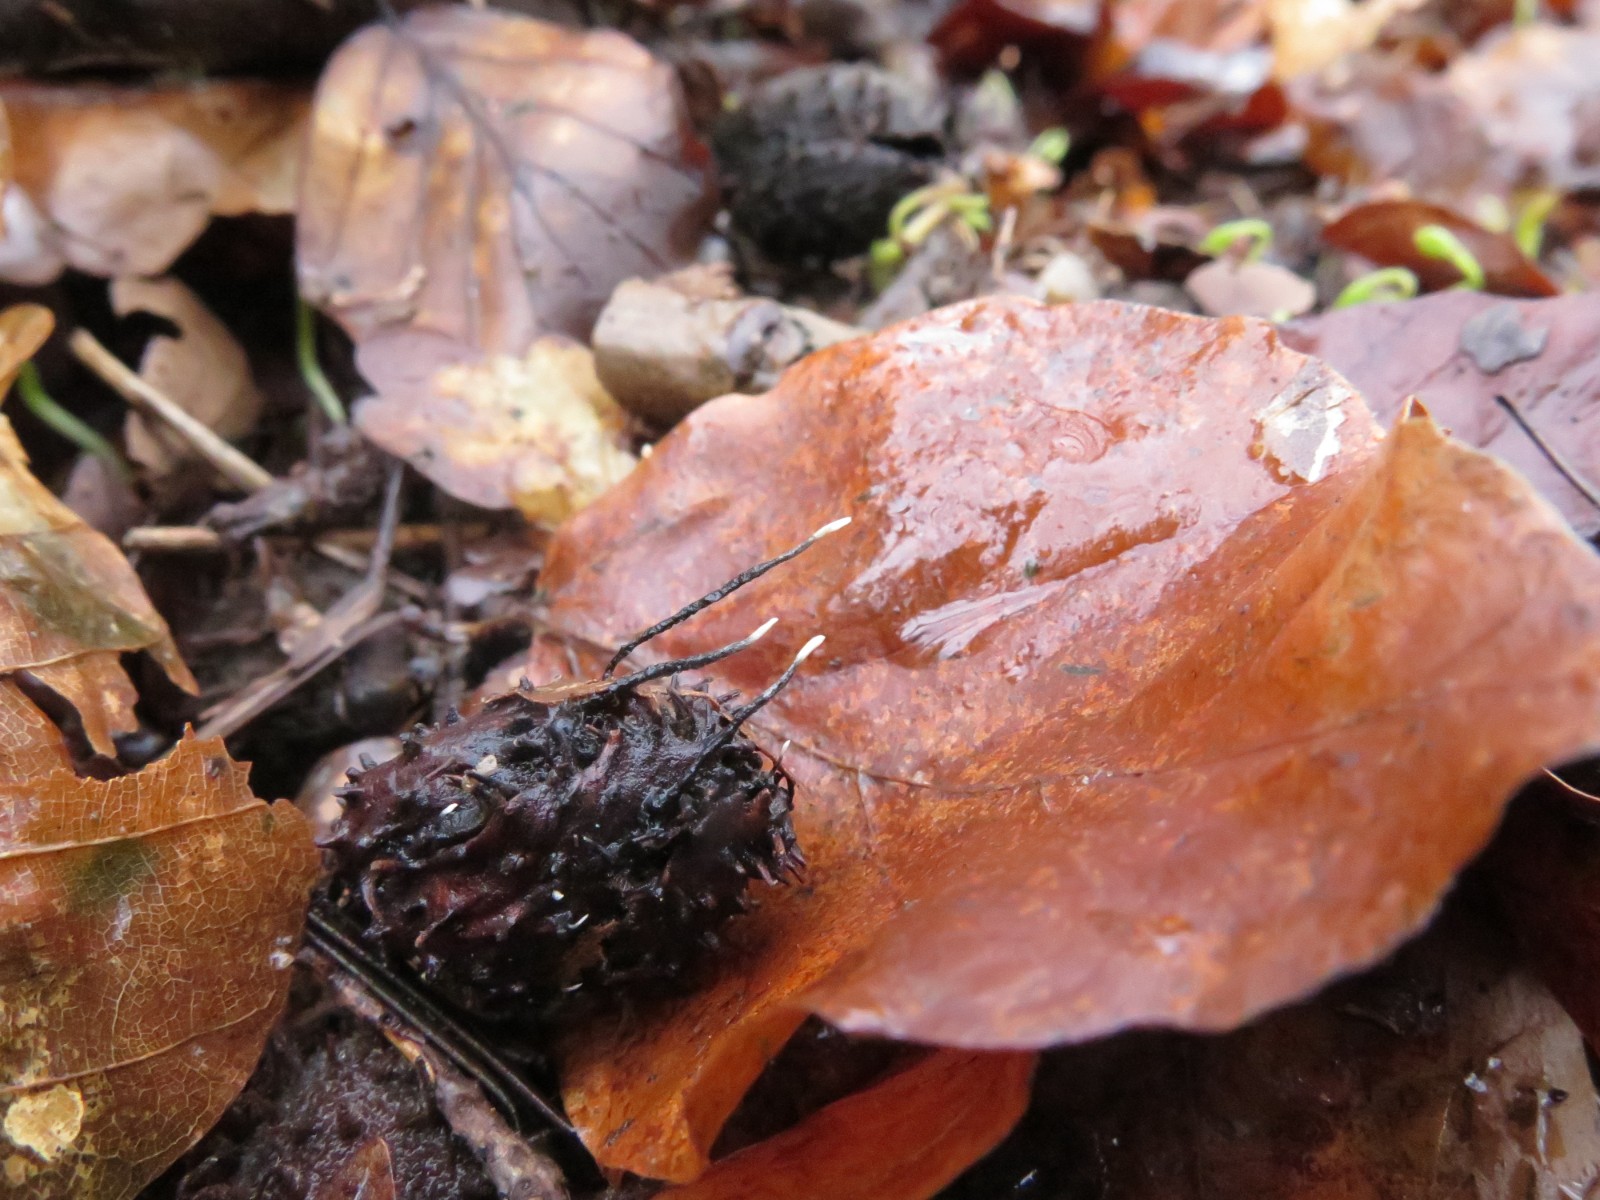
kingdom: Fungi
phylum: Ascomycota
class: Sordariomycetes
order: Xylariales
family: Xylariaceae
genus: Xylaria
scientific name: Xylaria carpophila
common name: bogskål-stødsvamp
